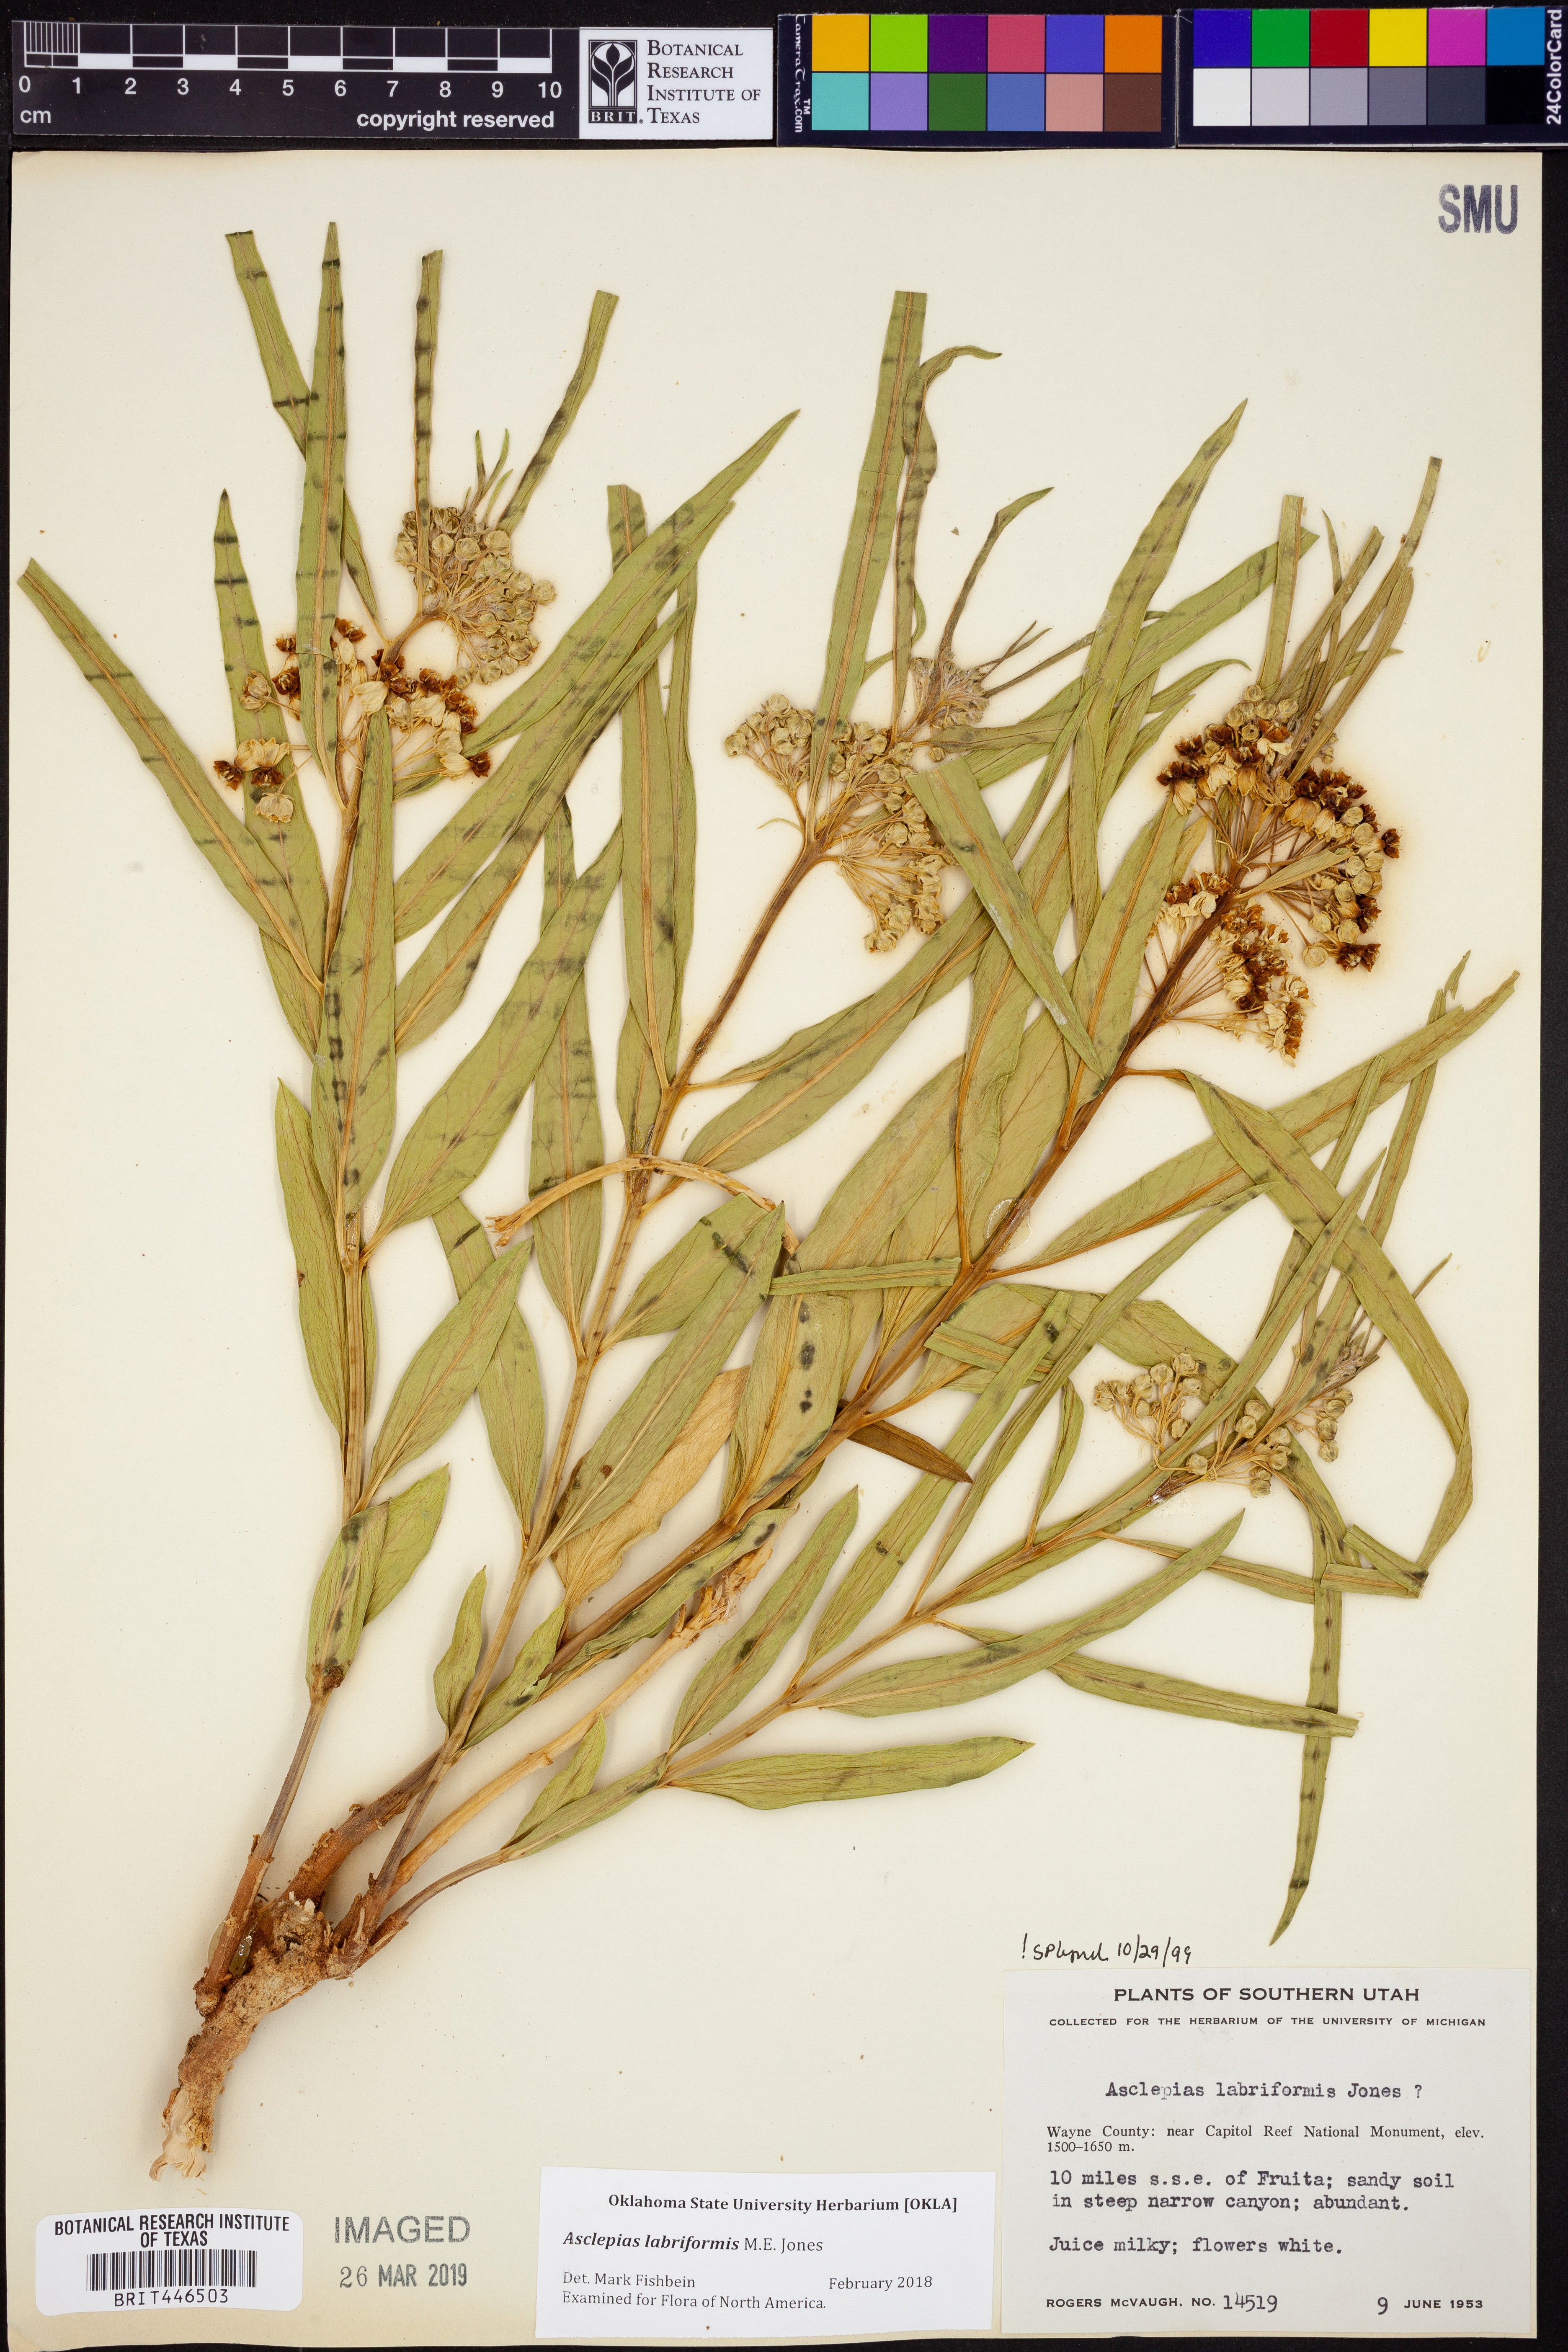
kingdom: Plantae
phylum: Tracheophyta
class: Magnoliopsida
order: Gentianales
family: Apocynaceae
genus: Asclepias
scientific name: Asclepias labriformis
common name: Labriformis milkweed
